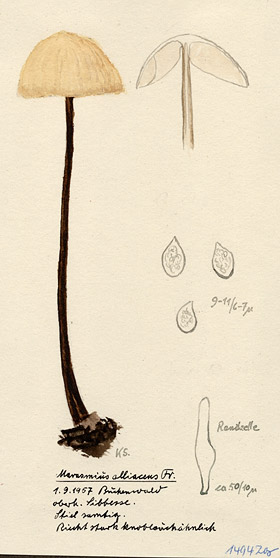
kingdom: Fungi
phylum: Basidiomycota
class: Agaricomycetes
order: Agaricales
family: Omphalotaceae
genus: Mycetinis
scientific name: Mycetinis alliaceus
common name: Garlic parachute
